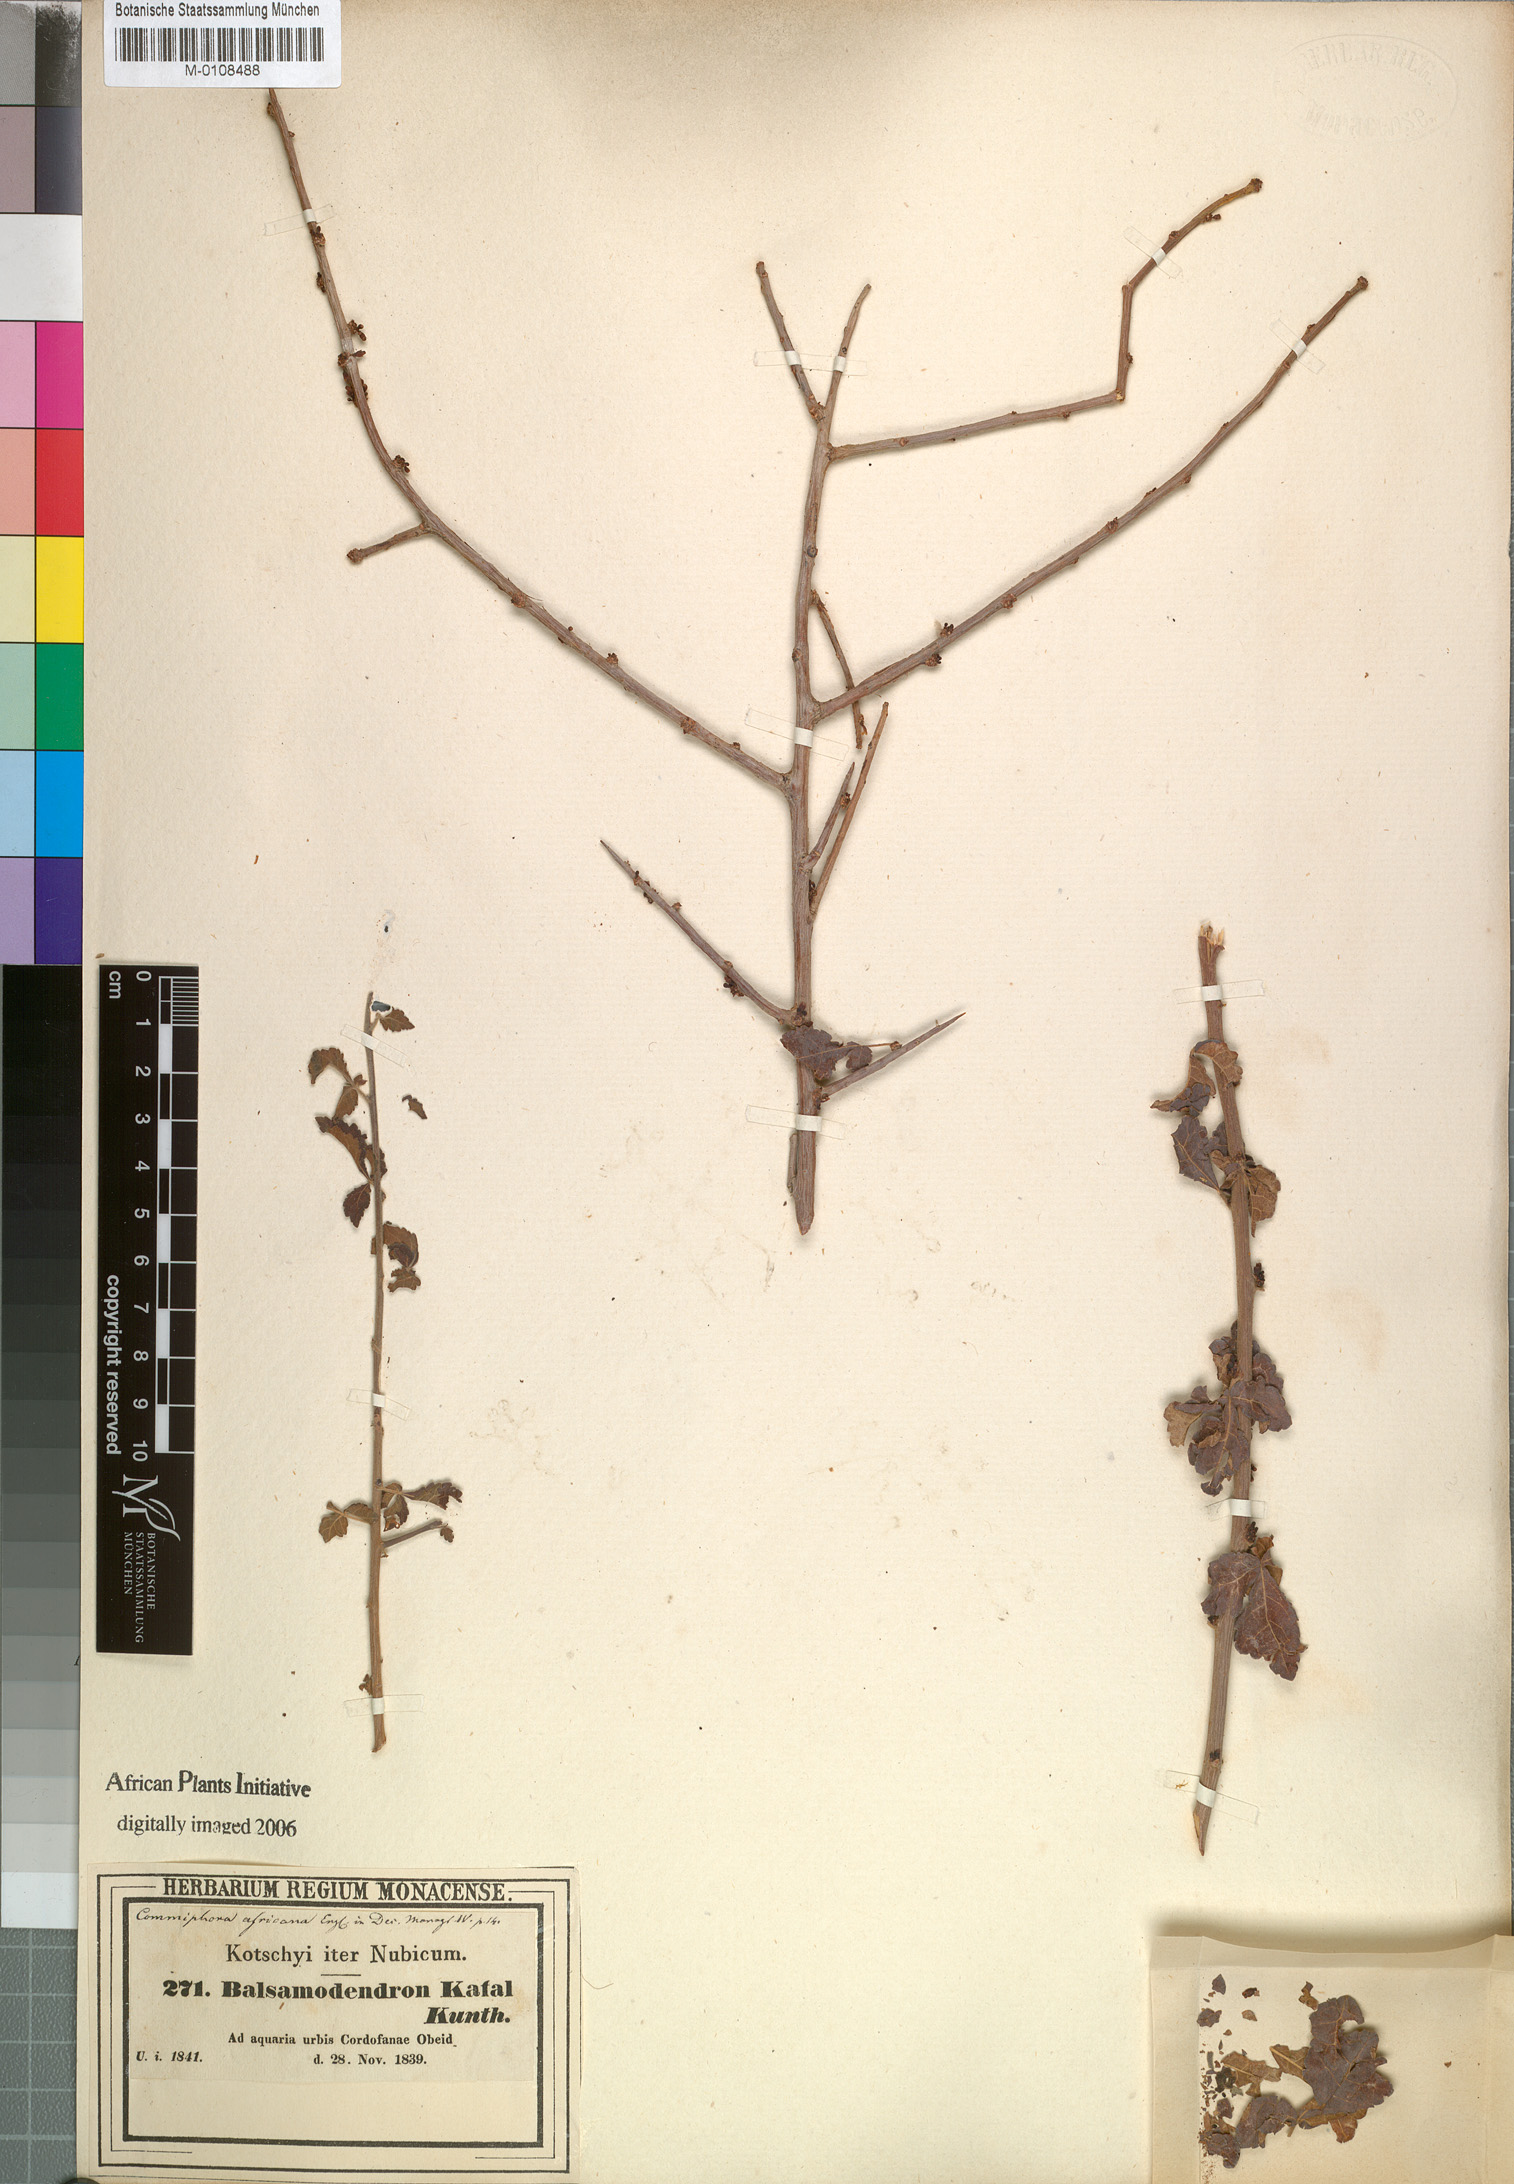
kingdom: Plantae
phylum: Tracheophyta
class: Magnoliopsida
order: Sapindales
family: Burseraceae
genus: Commiphora
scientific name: Commiphora africana
